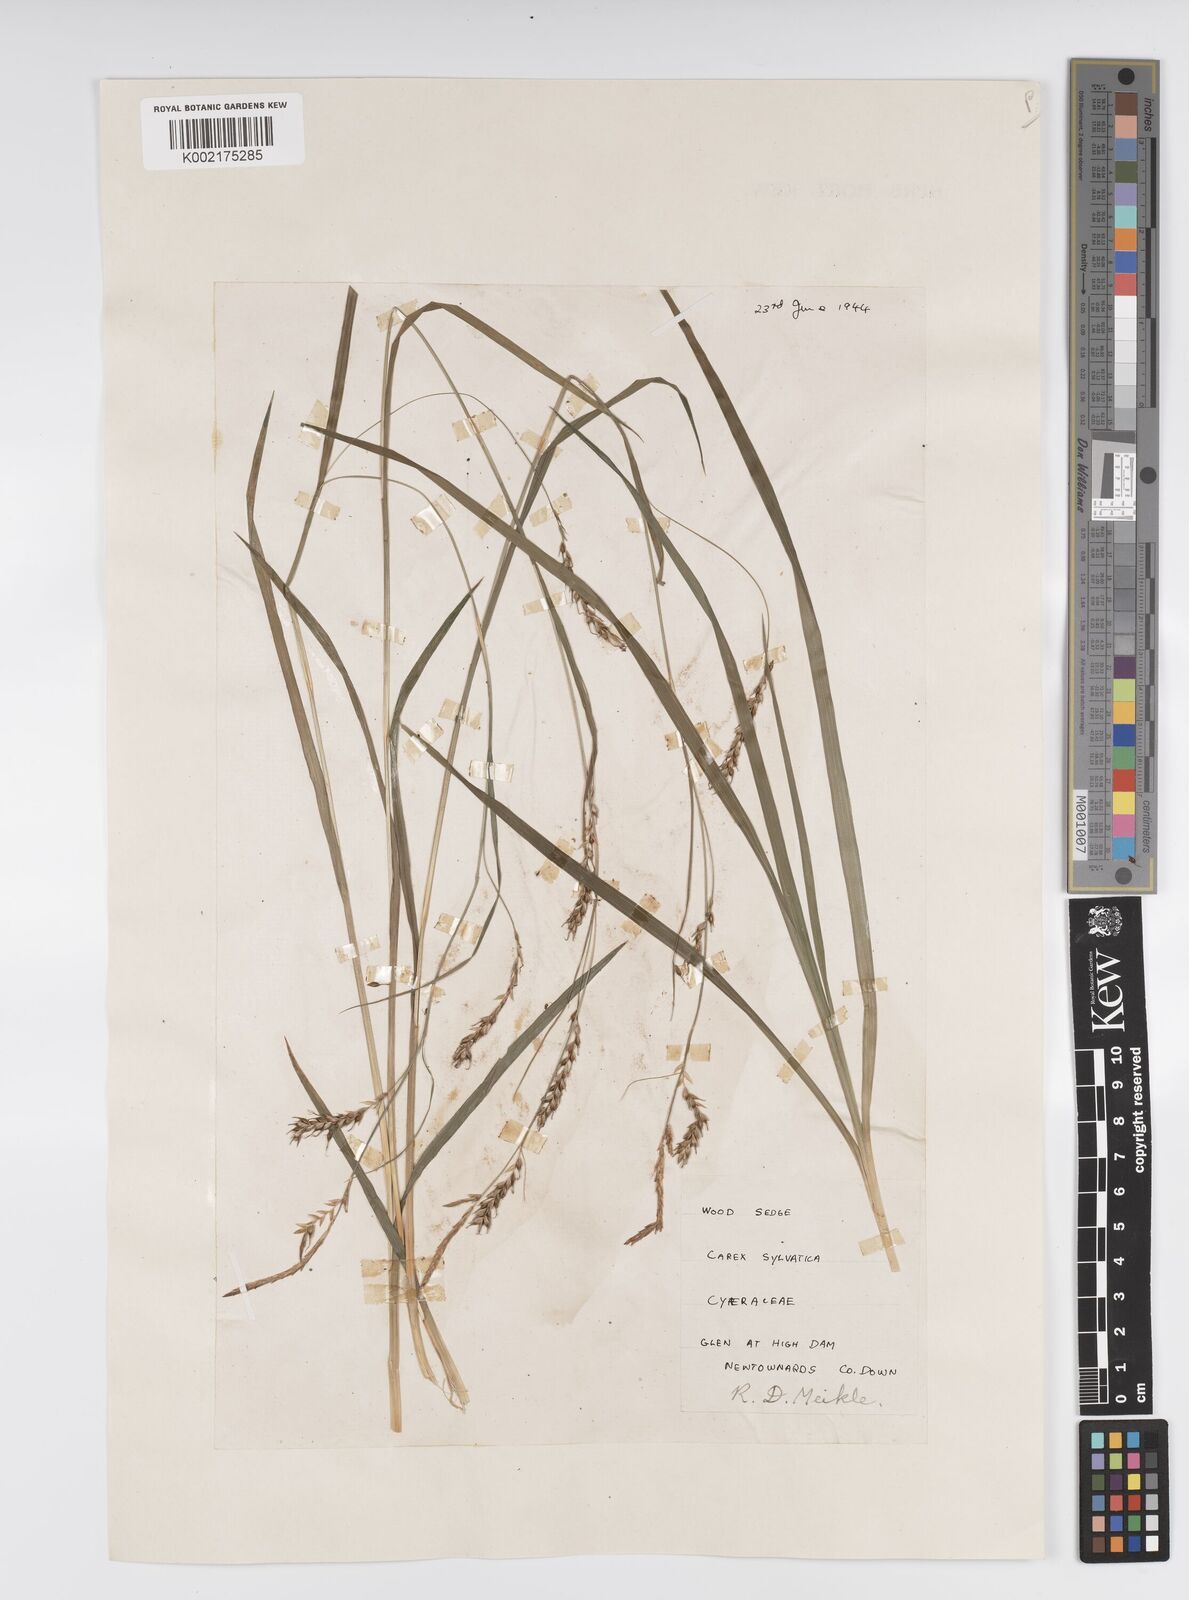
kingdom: Plantae
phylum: Tracheophyta
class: Liliopsida
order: Poales
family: Cyperaceae
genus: Carex
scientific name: Carex sylvatica
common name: Wood-sedge
